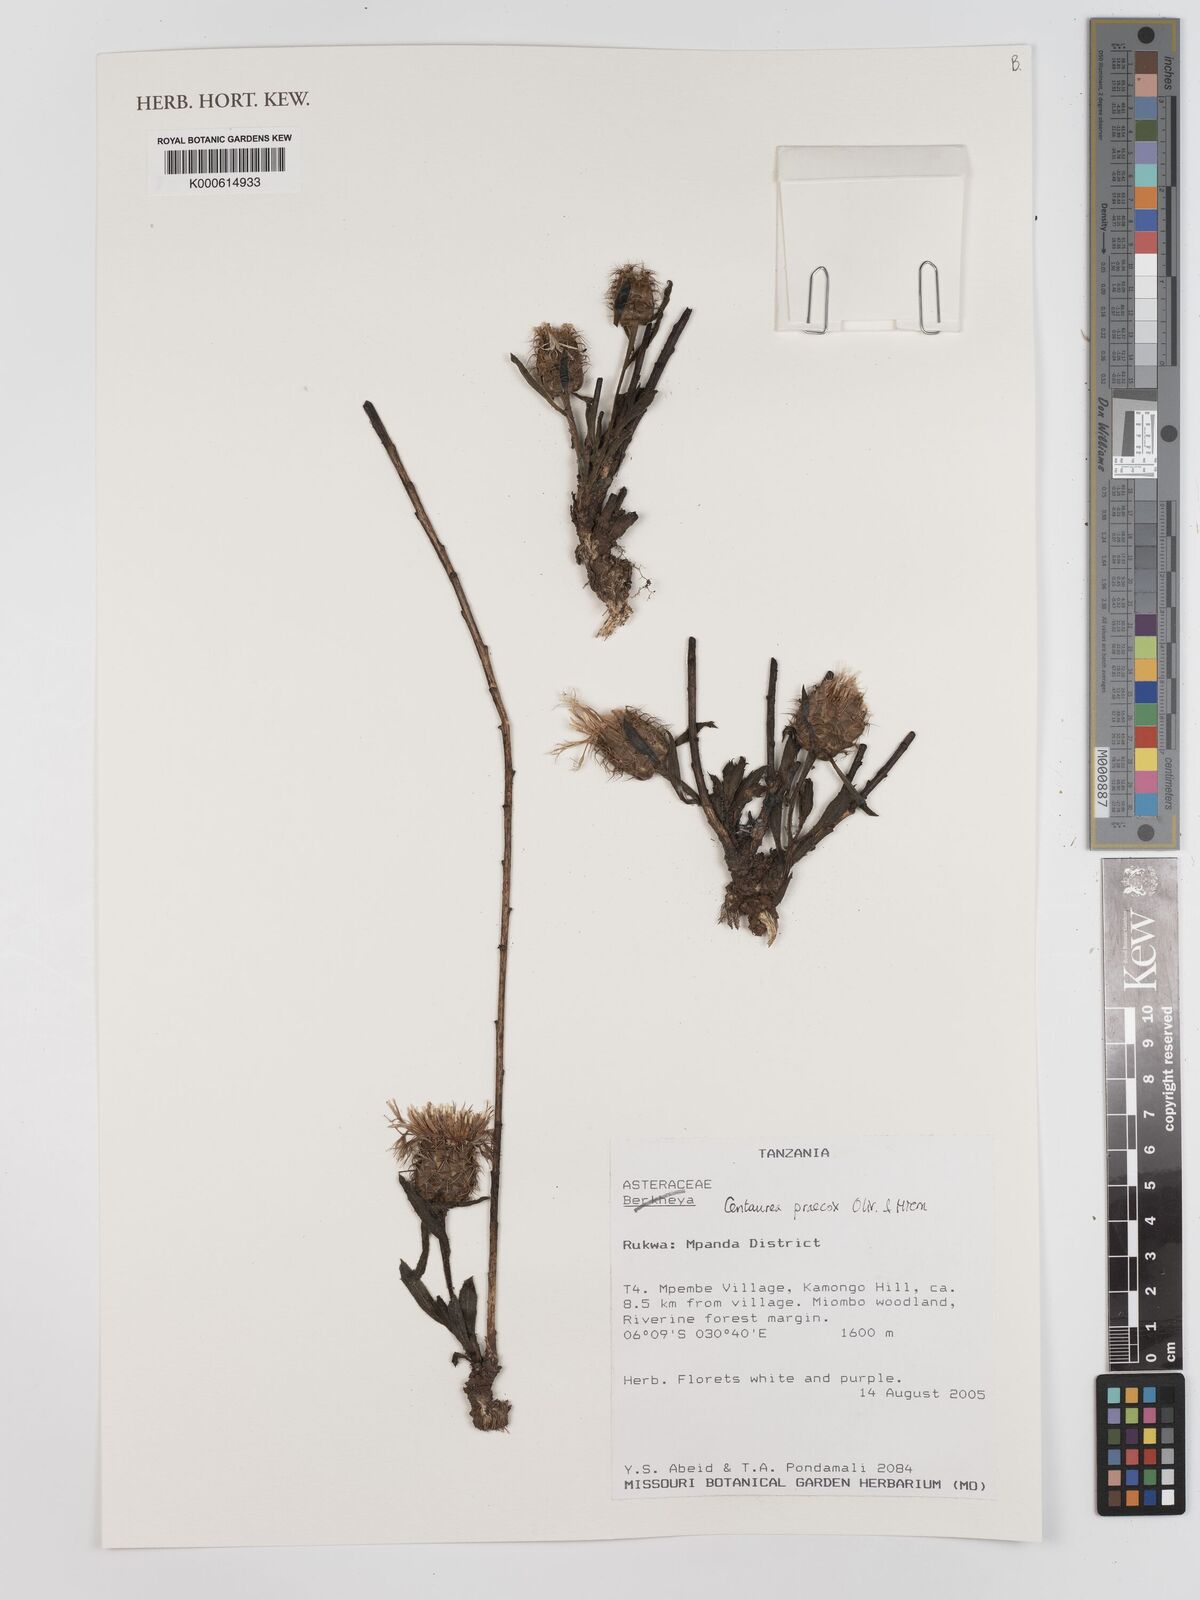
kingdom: Plantae
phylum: Tracheophyta
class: Magnoliopsida
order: Asterales
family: Asteraceae
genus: Centaurea
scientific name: Centaurea praecox
